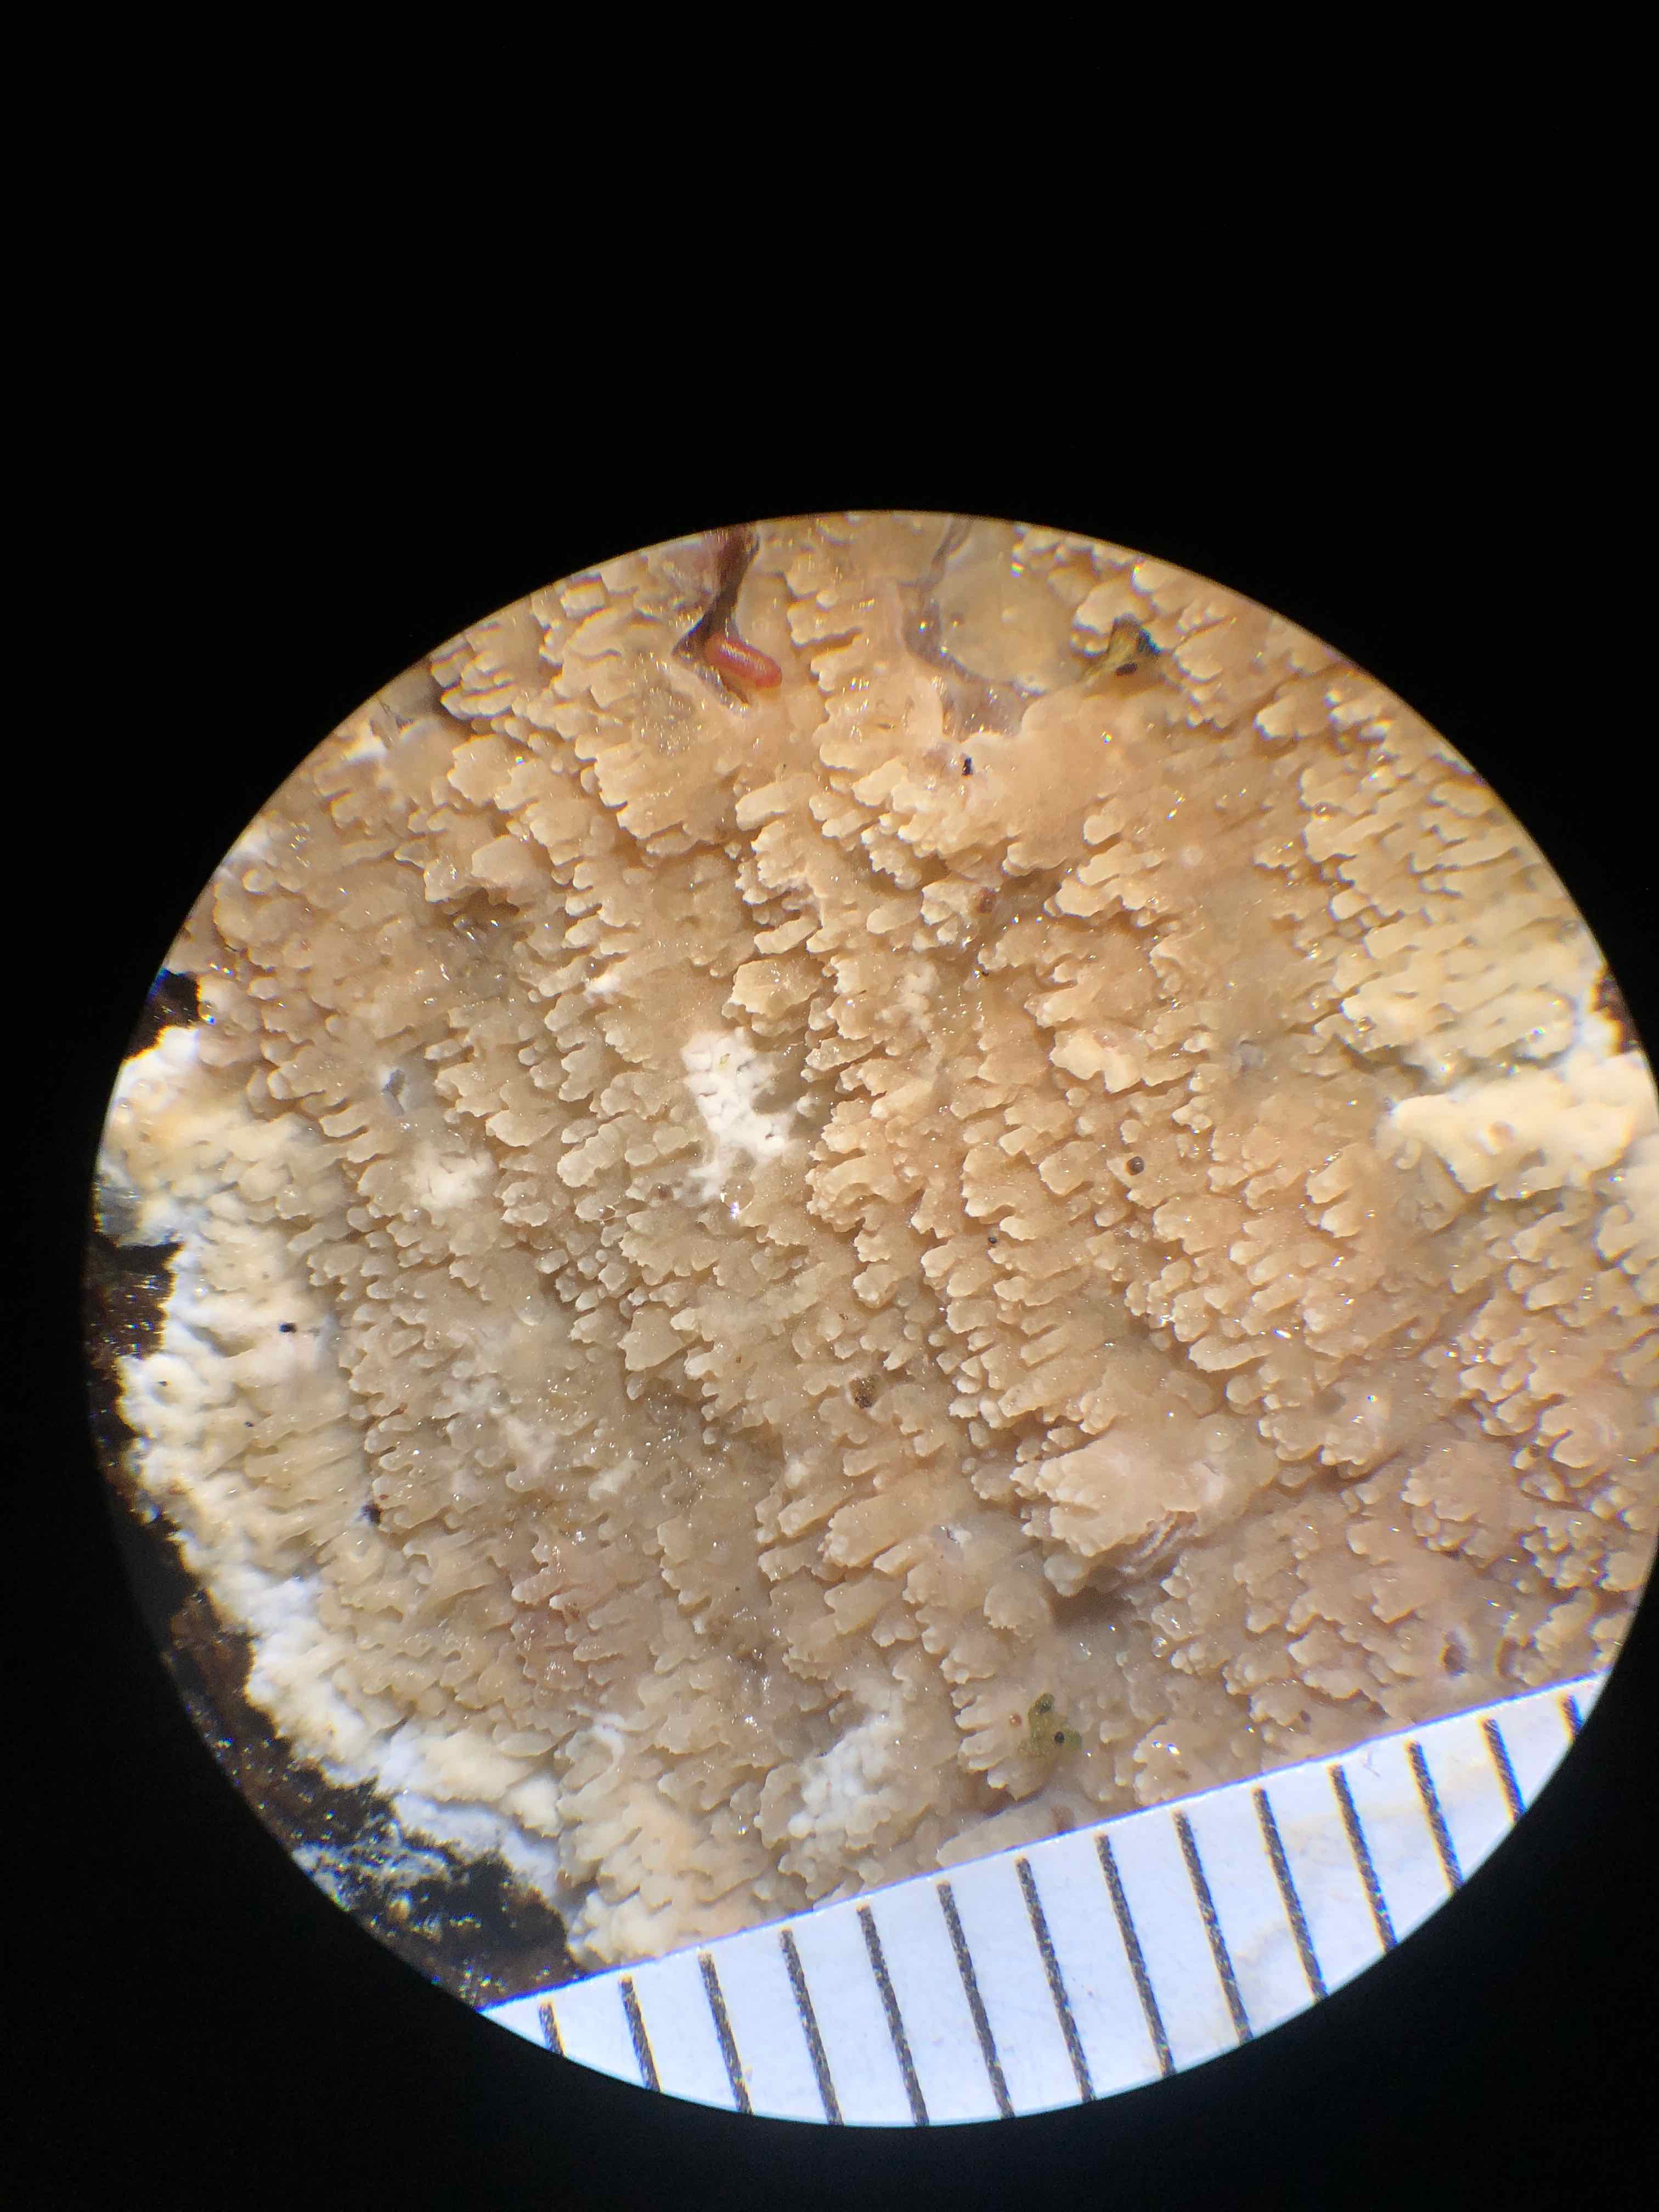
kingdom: Fungi
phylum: Basidiomycota
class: Agaricomycetes
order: Polyporales
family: Meruliaceae
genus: Phlebia
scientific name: Phlebia rufa
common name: ege-åresvamp
